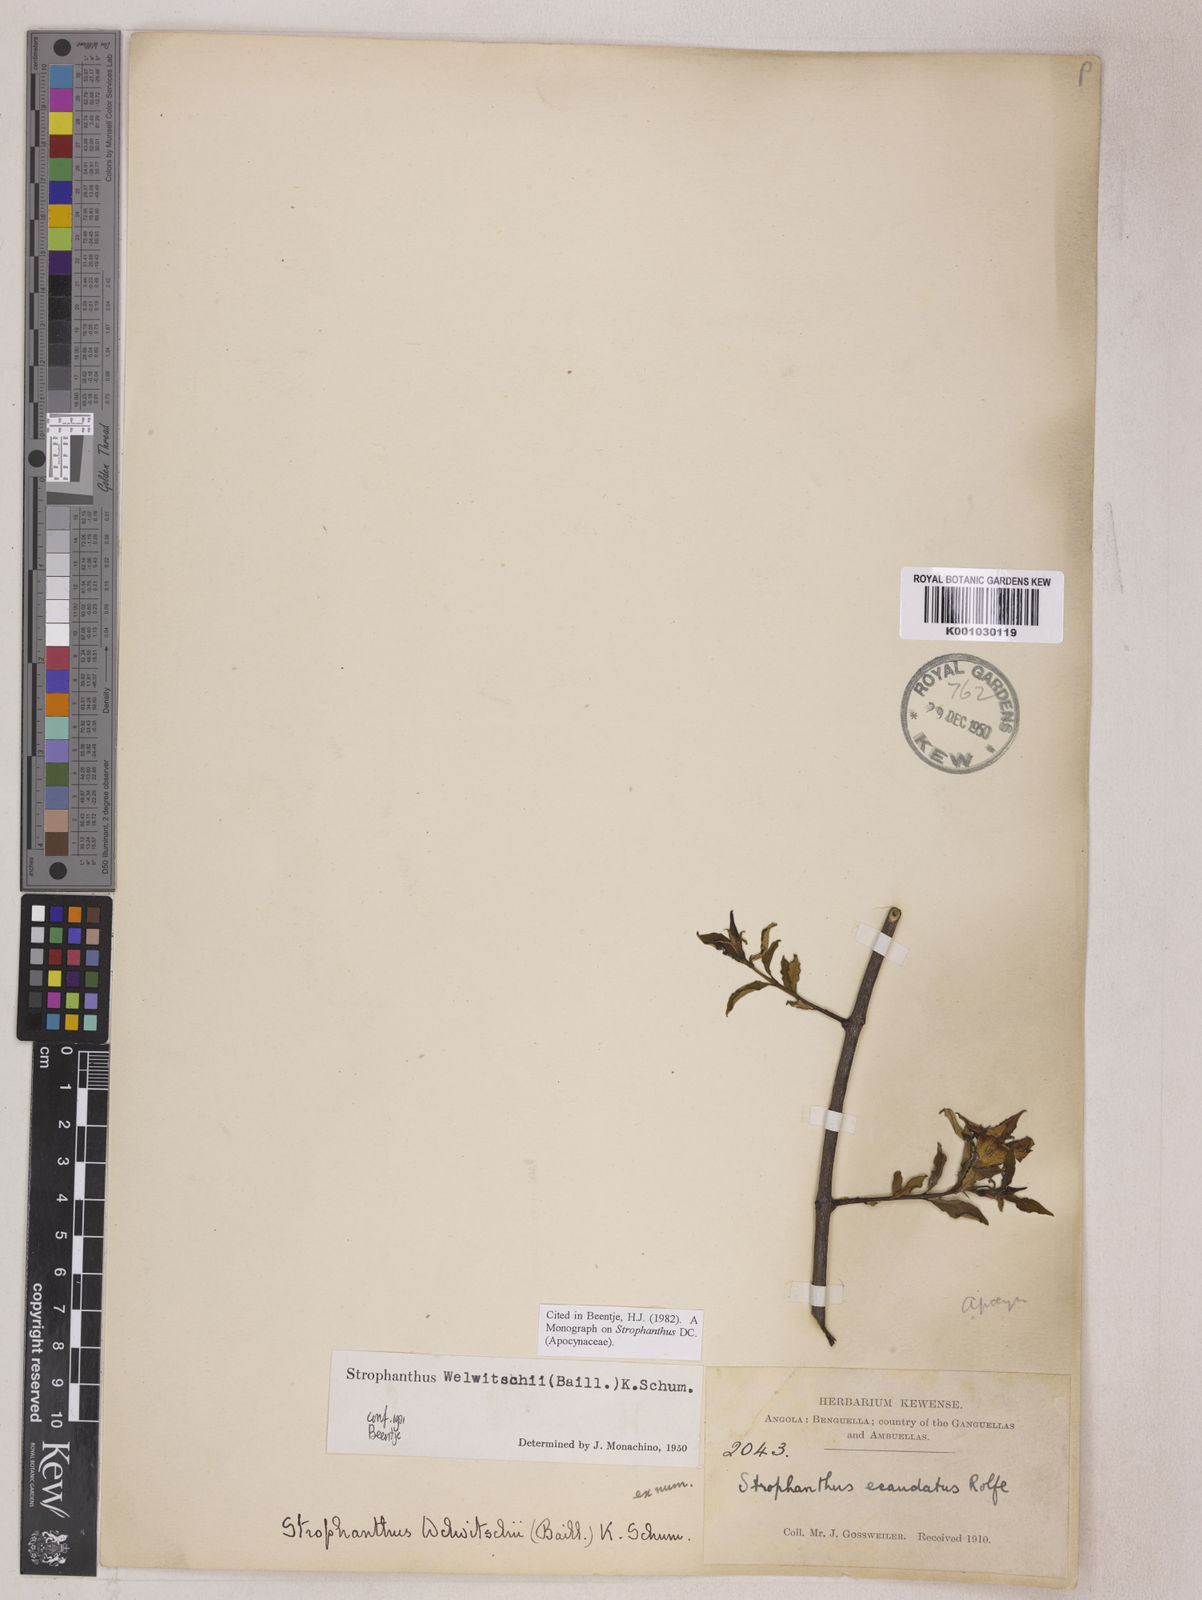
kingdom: Plantae
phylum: Tracheophyta
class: Magnoliopsida
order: Gentianales
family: Apocynaceae
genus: Strophanthus
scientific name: Strophanthus welwitschii
